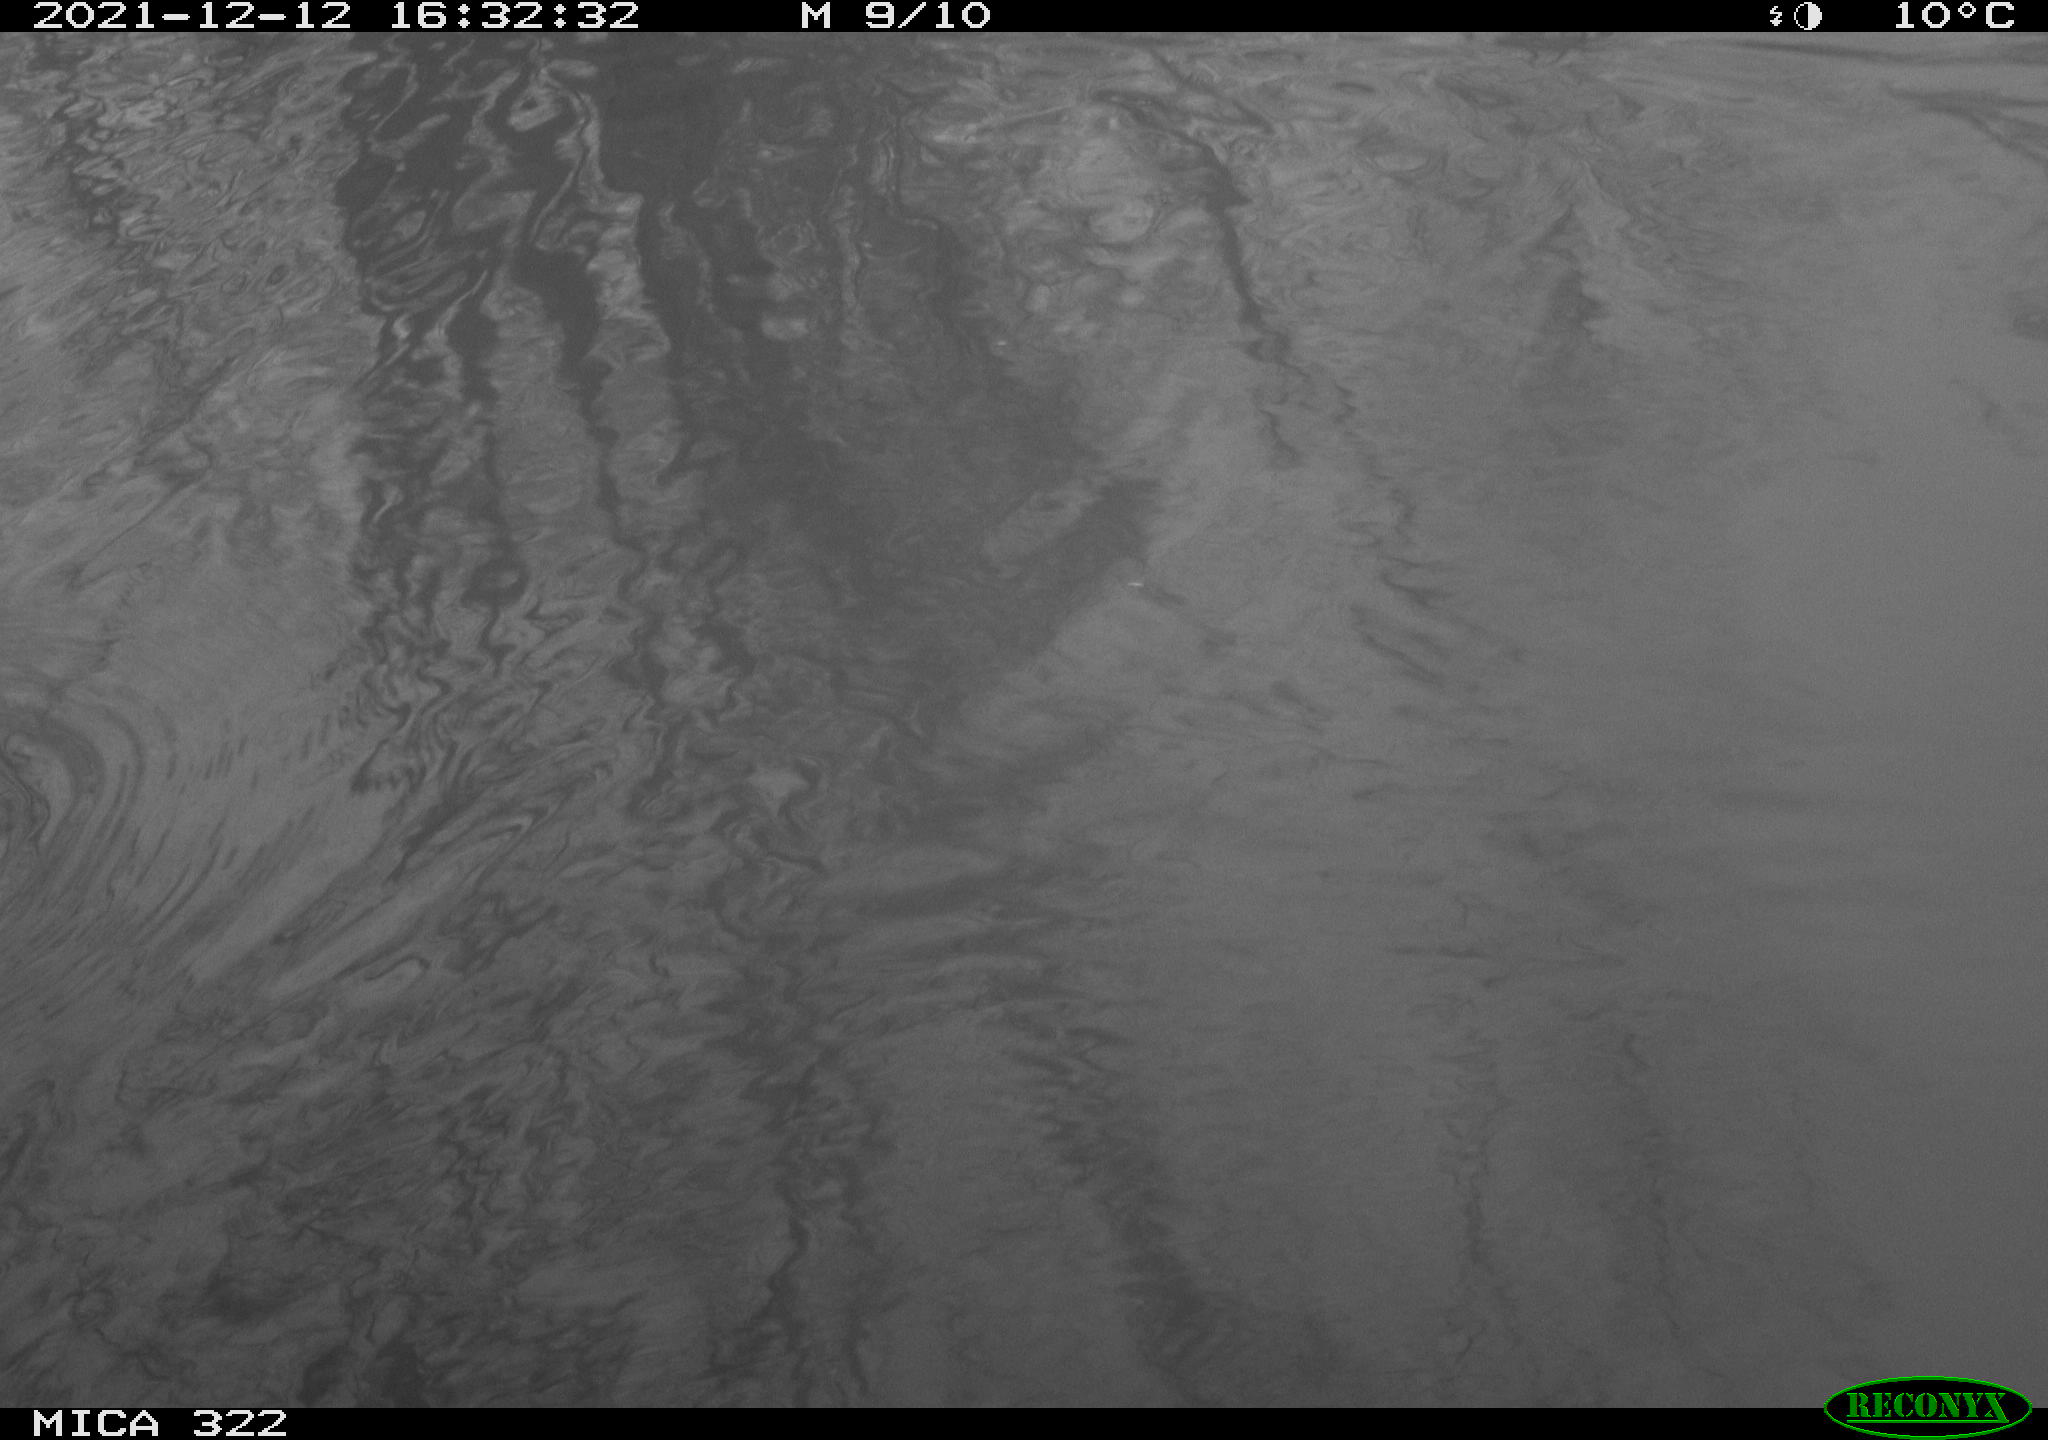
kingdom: Animalia
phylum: Chordata
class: Aves
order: Gruiformes
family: Rallidae
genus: Gallinula
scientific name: Gallinula chloropus
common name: Common moorhen
